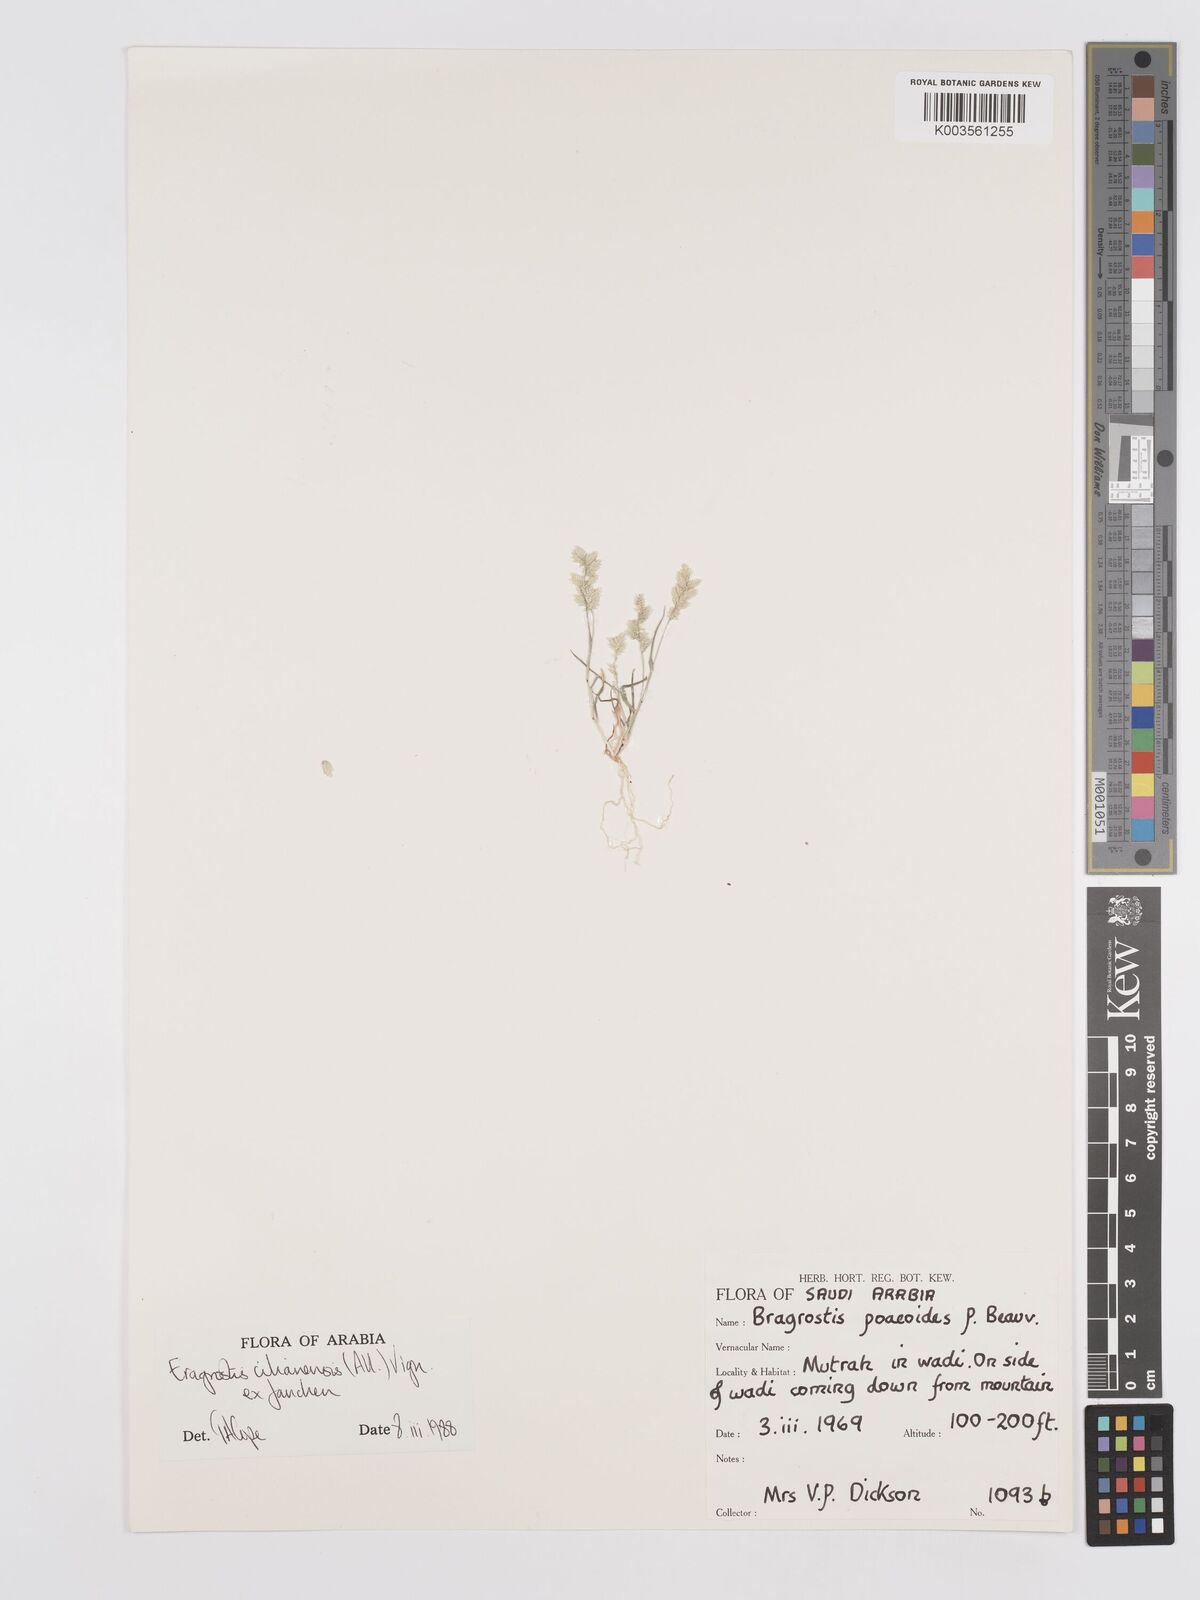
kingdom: Plantae
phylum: Tracheophyta
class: Liliopsida
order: Poales
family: Poaceae
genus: Eragrostis
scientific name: Eragrostis cilianensis
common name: Stinkgrass
